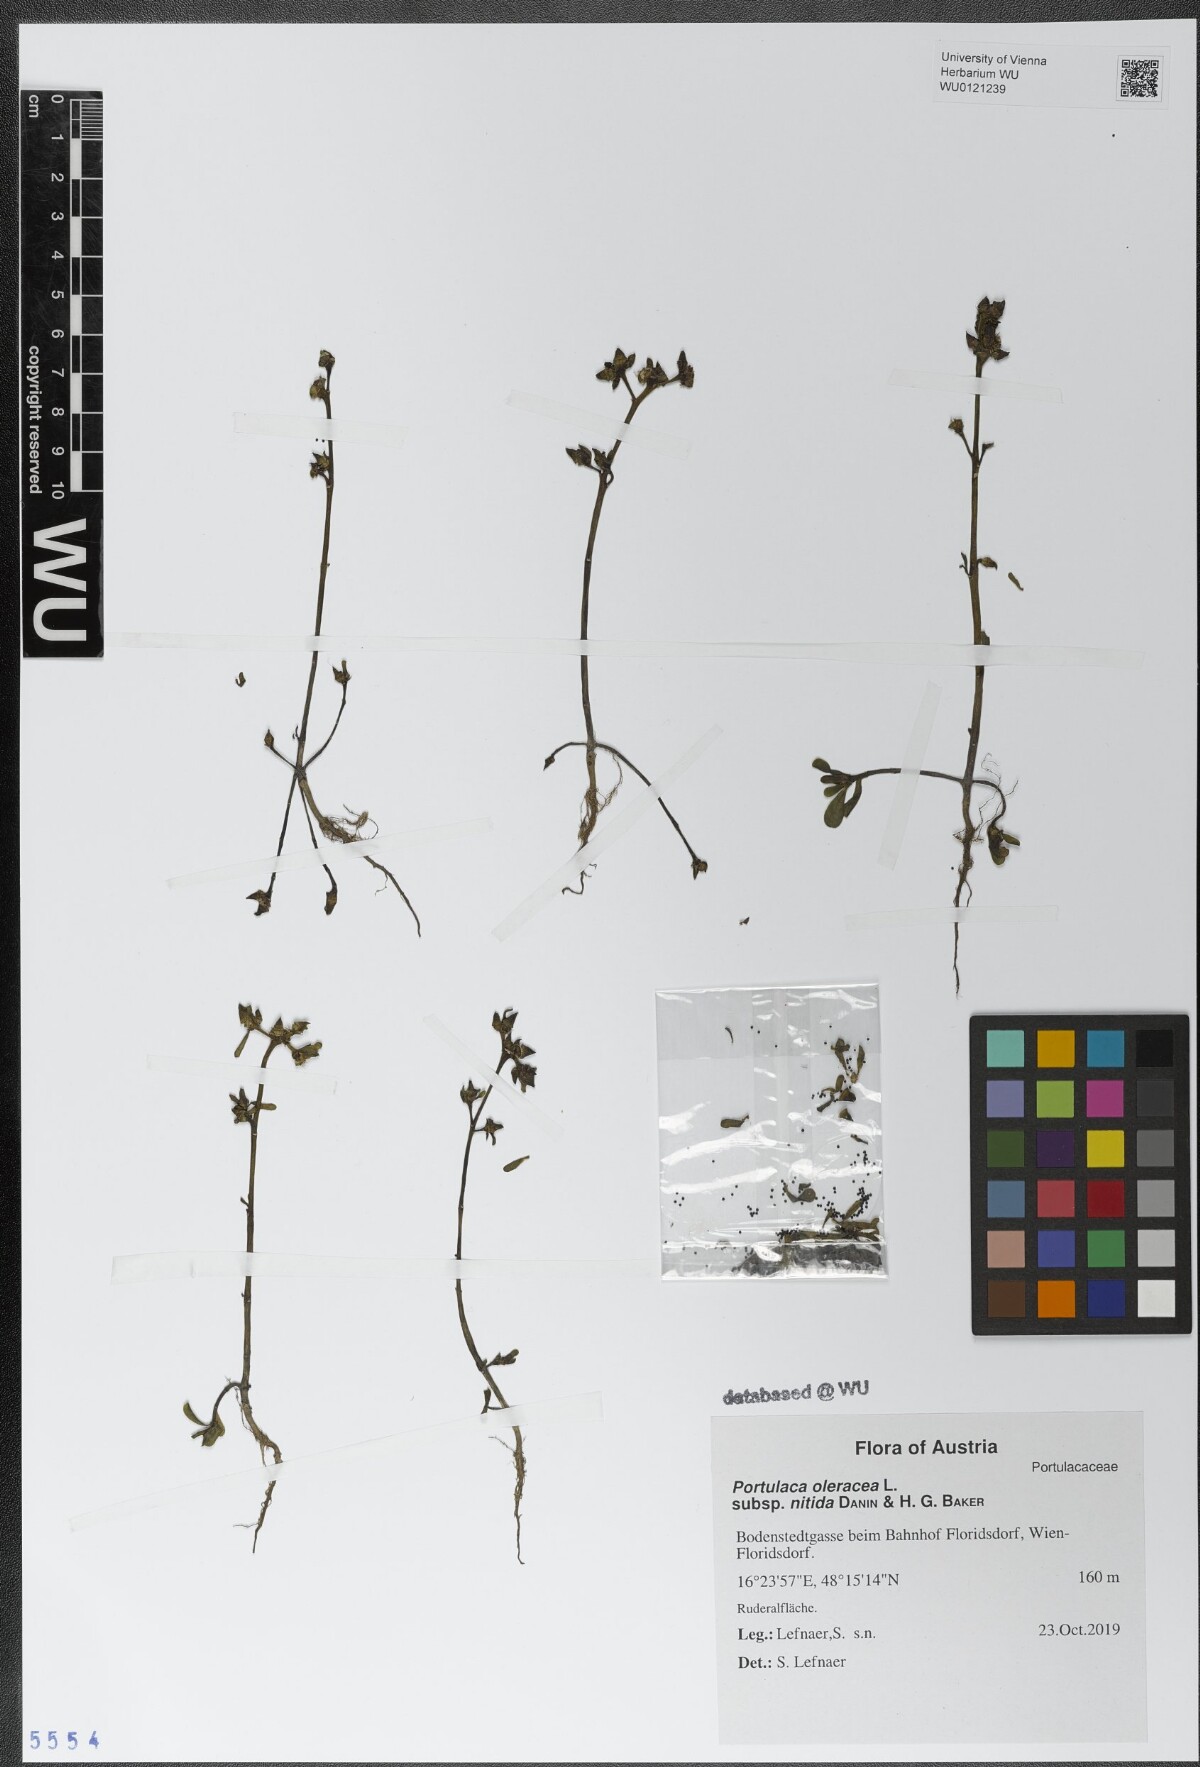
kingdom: Plantae
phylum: Tracheophyta
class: Magnoliopsida
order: Caryophyllales
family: Portulacaceae
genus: Portulaca
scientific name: Portulaca nitida
